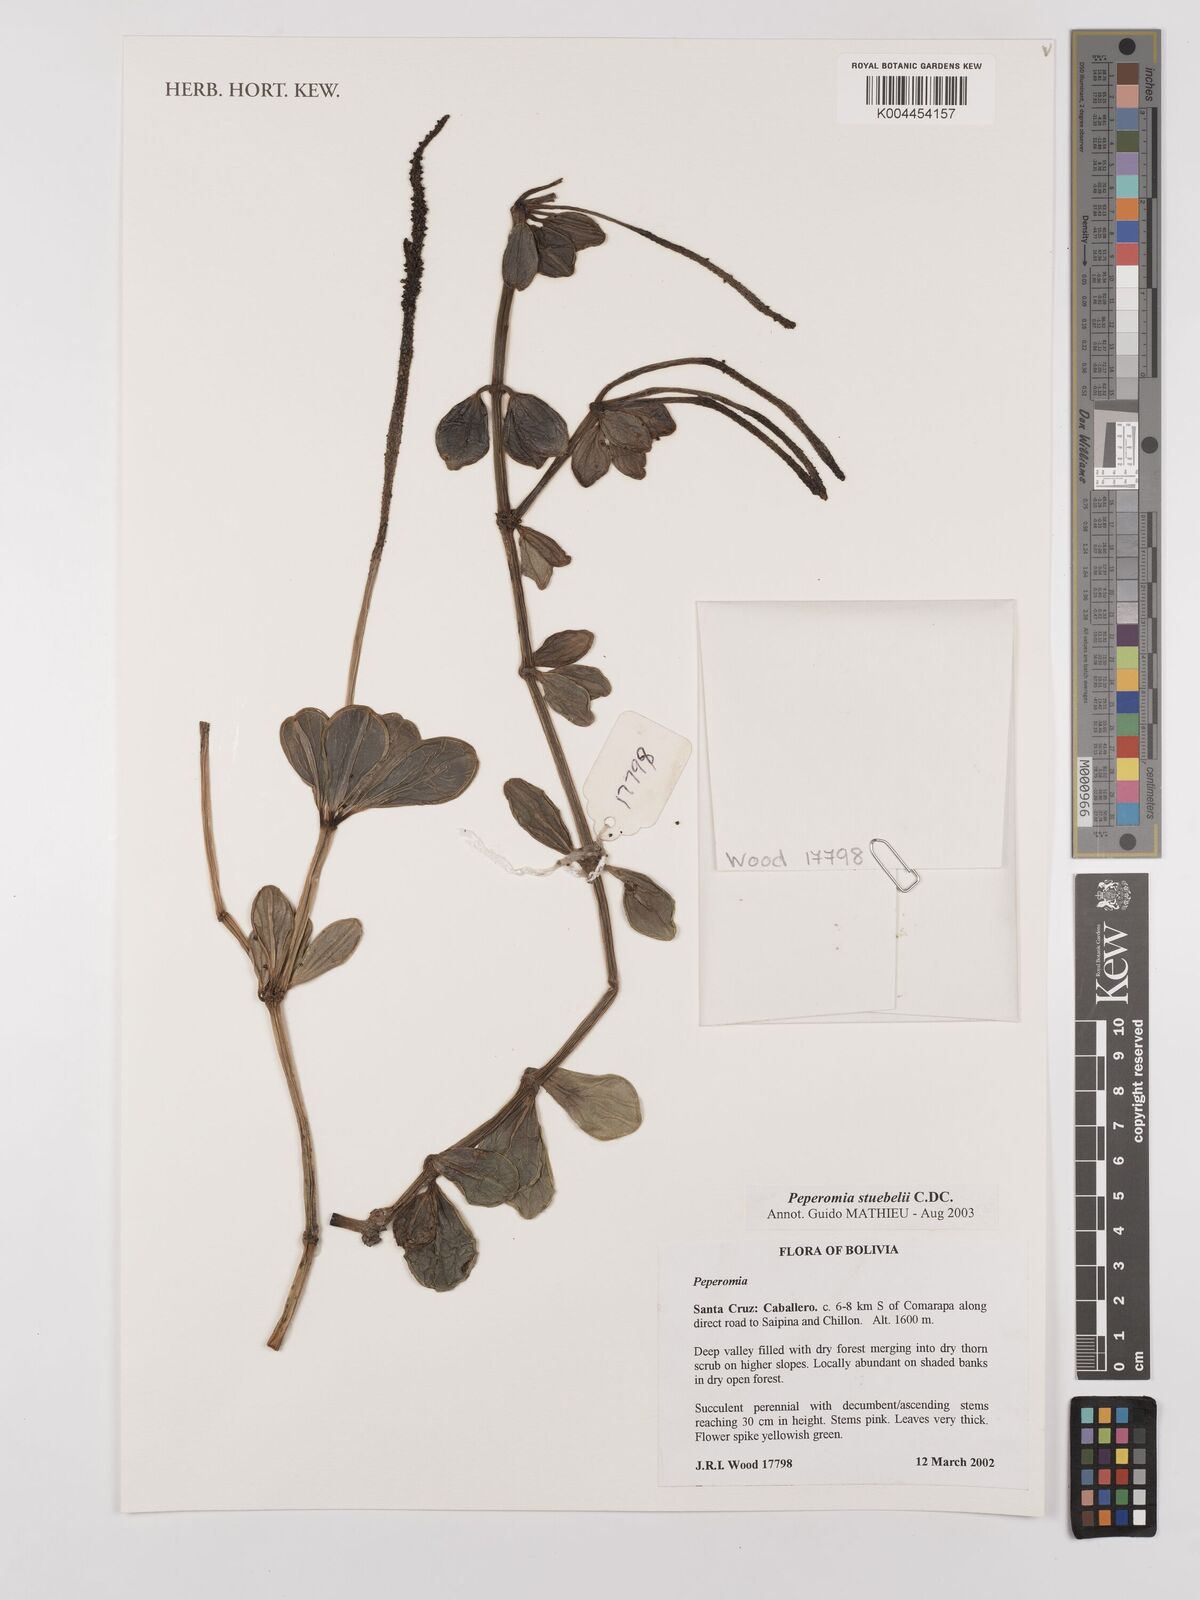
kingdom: Plantae
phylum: Tracheophyta
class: Magnoliopsida
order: Piperales
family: Piperaceae
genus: Peperomia
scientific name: Peperomia stuebelii
